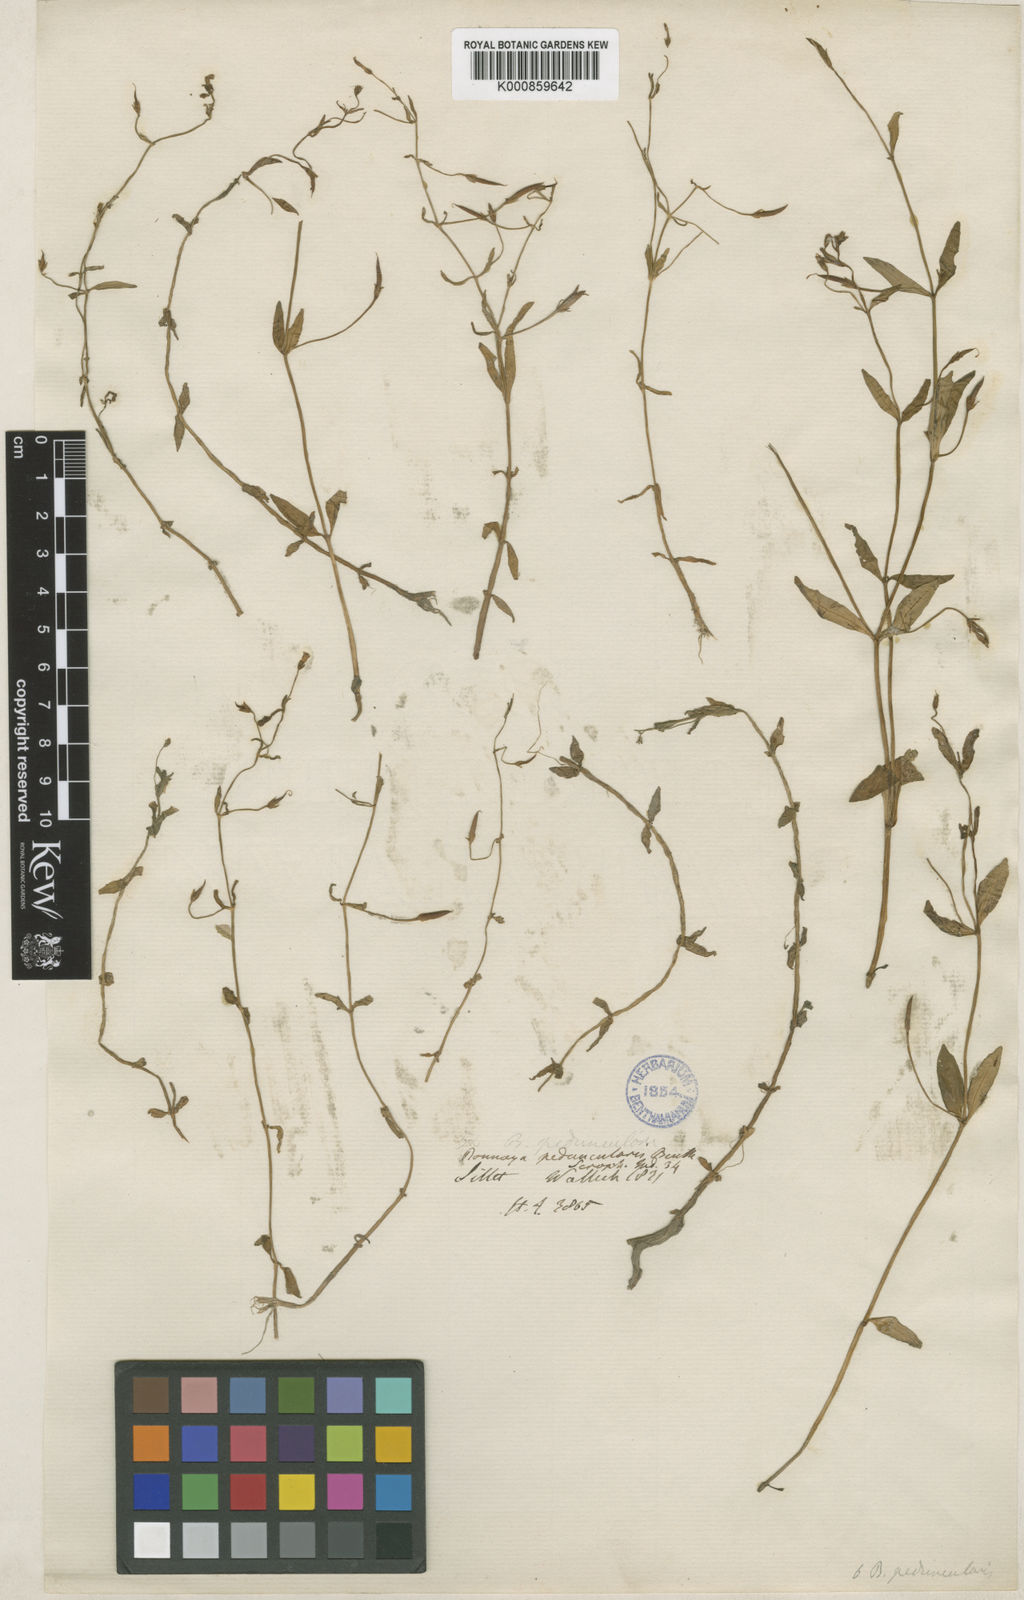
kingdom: Plantae
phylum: Tracheophyta
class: Magnoliopsida
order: Lamiales
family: Linderniaceae
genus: Torenia
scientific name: Torenia anagallis
